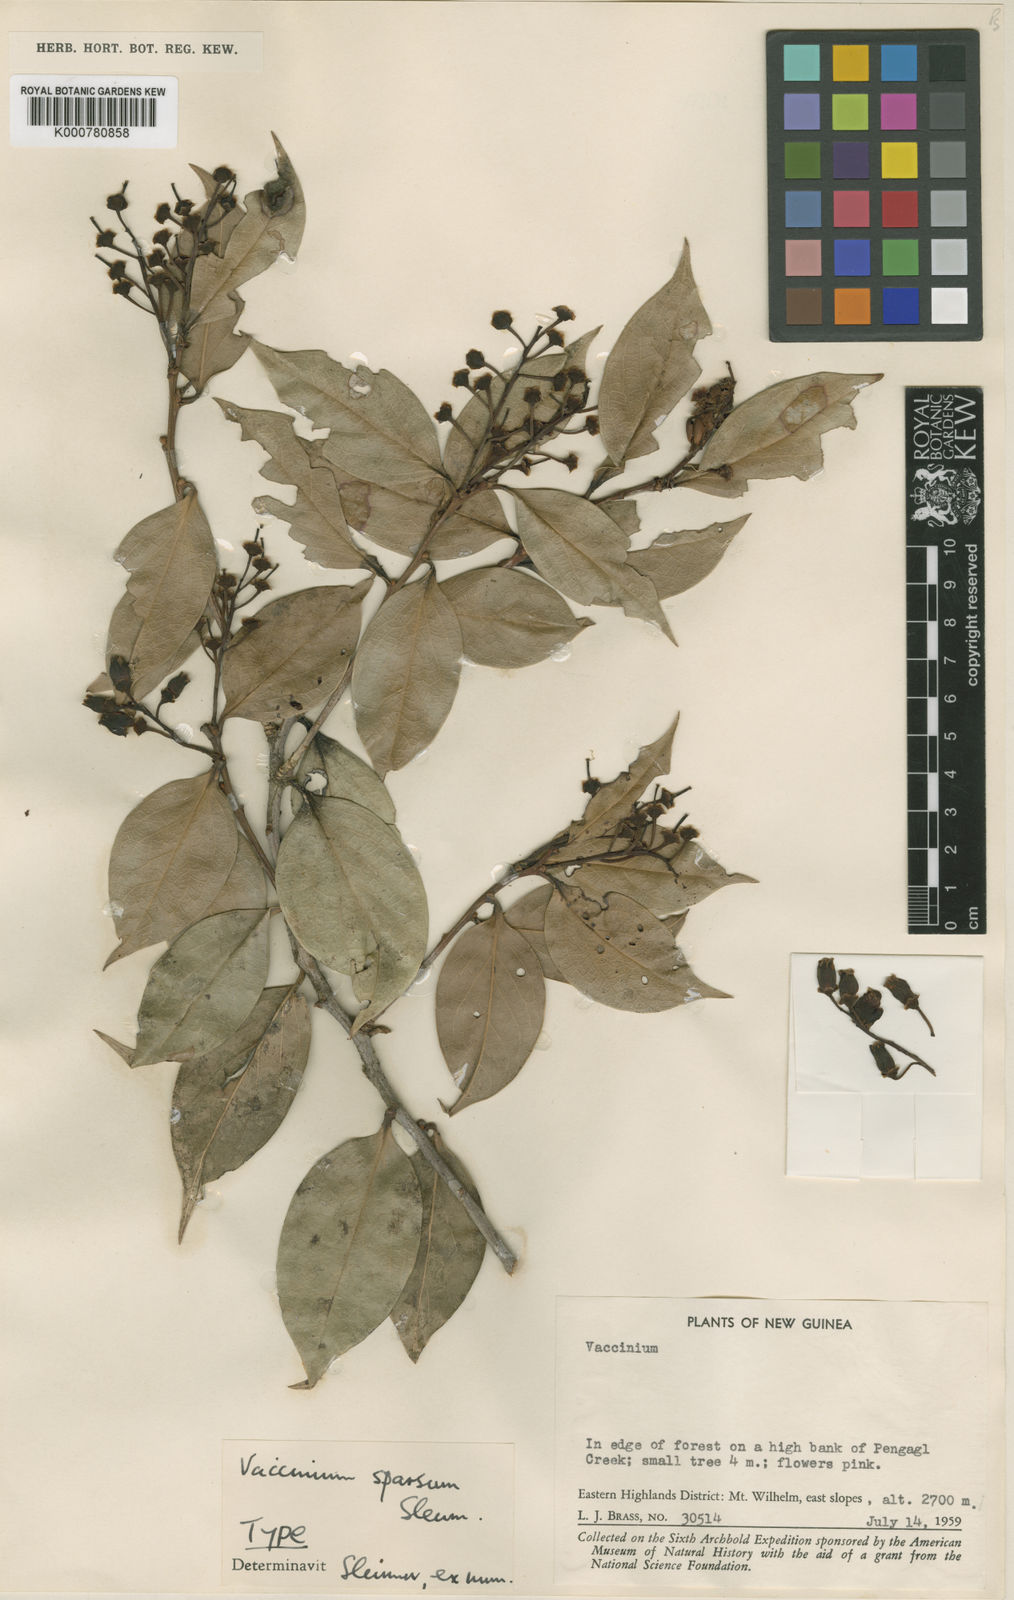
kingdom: Plantae
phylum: Tracheophyta
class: Magnoliopsida
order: Ericales
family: Ericaceae
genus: Vaccinium
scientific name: Vaccinium sparsum
